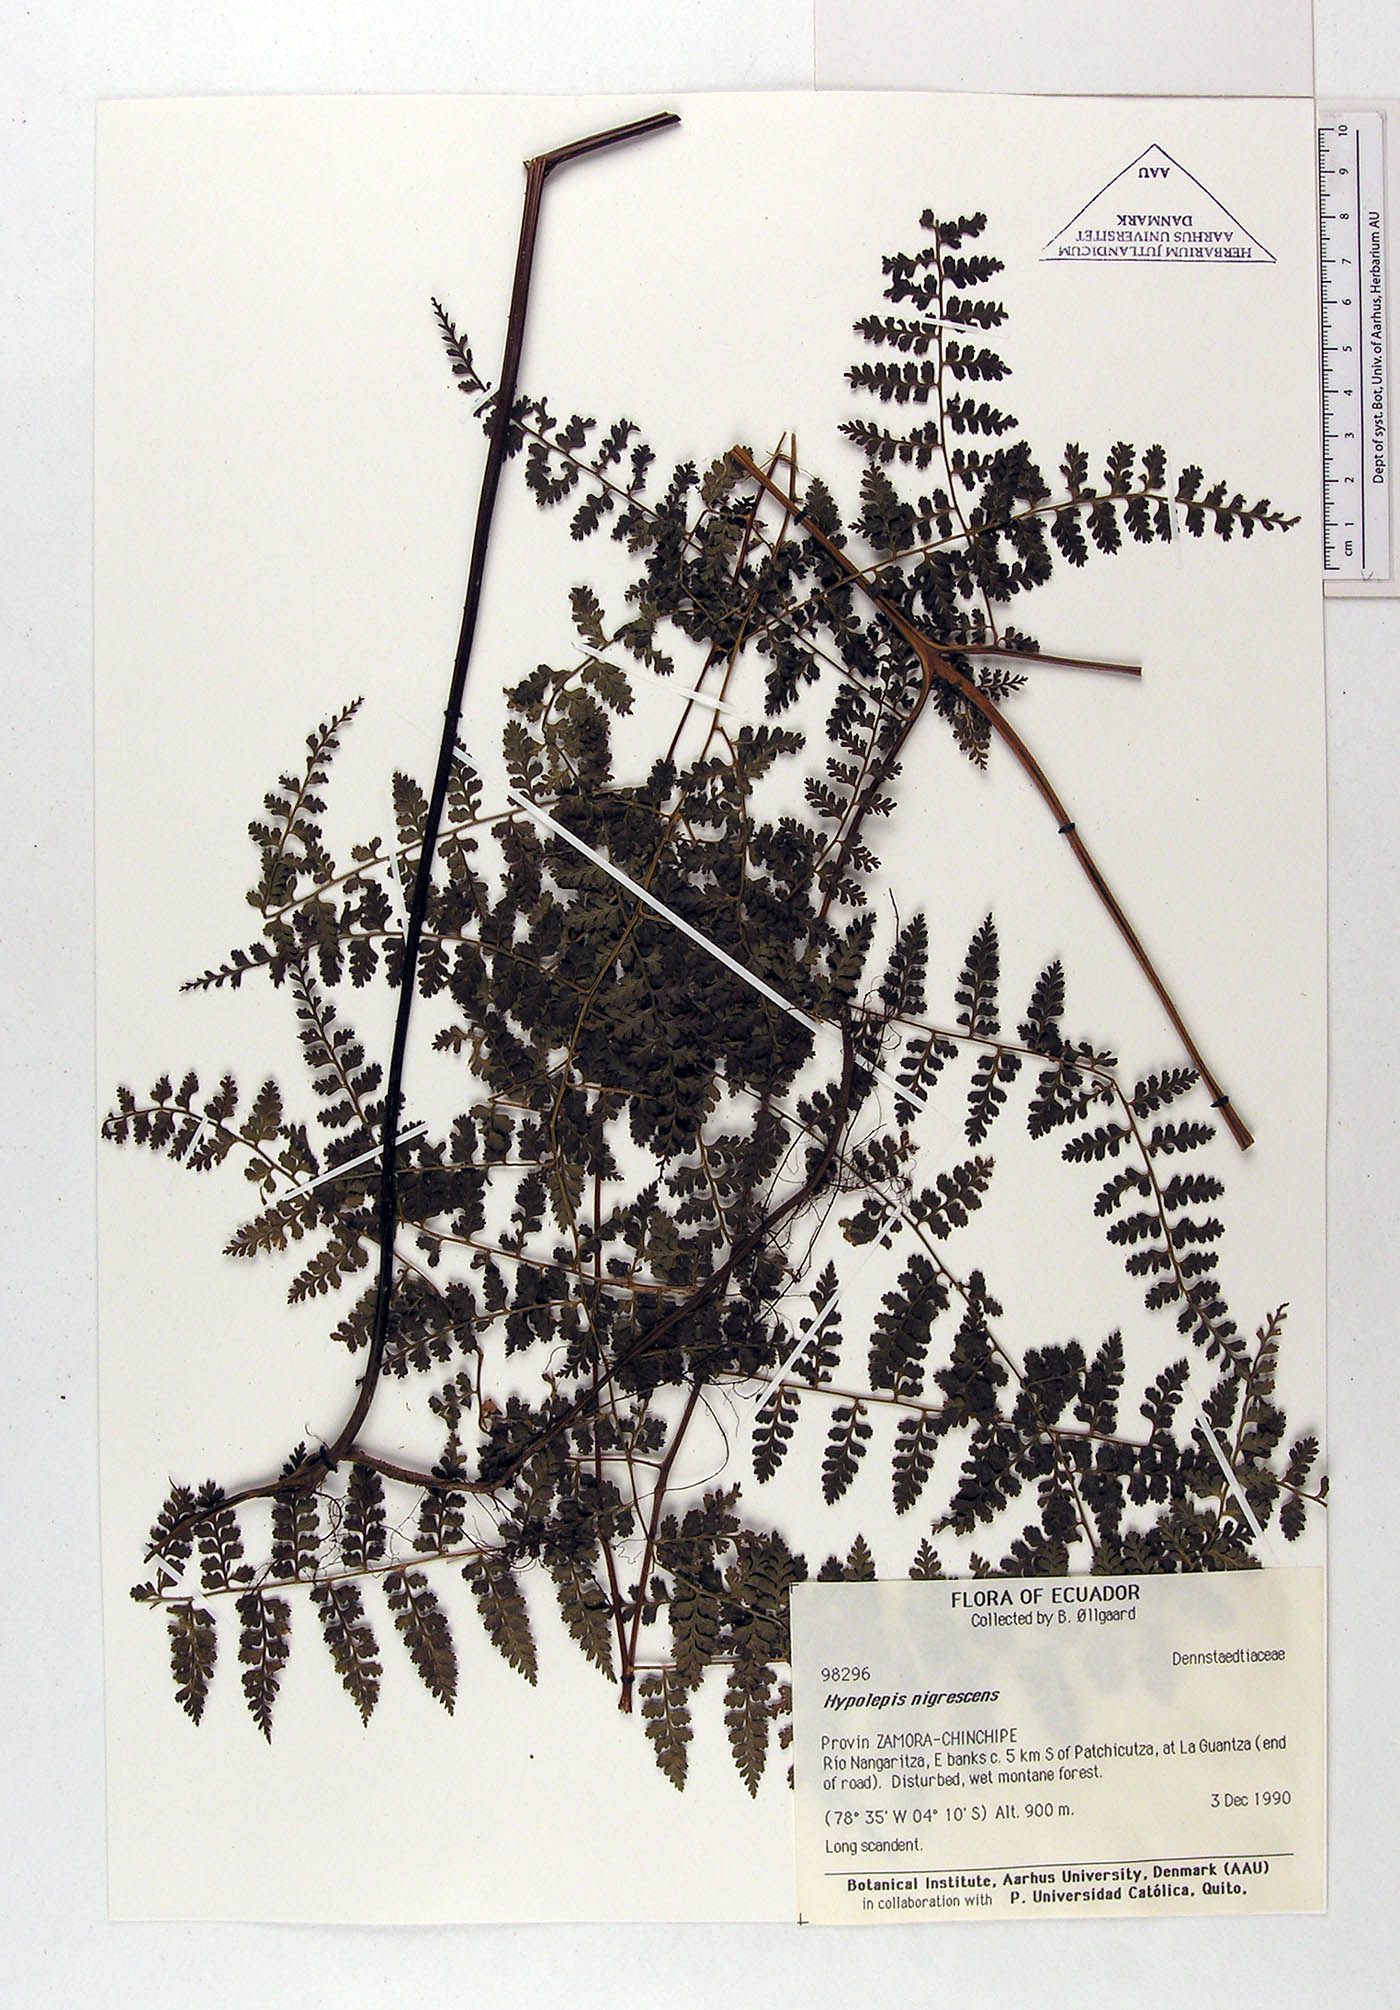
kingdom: Plantae
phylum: Tracheophyta
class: Polypodiopsida
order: Polypodiales
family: Dennstaedtiaceae
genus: Hiya
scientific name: Hiya nigrescens
